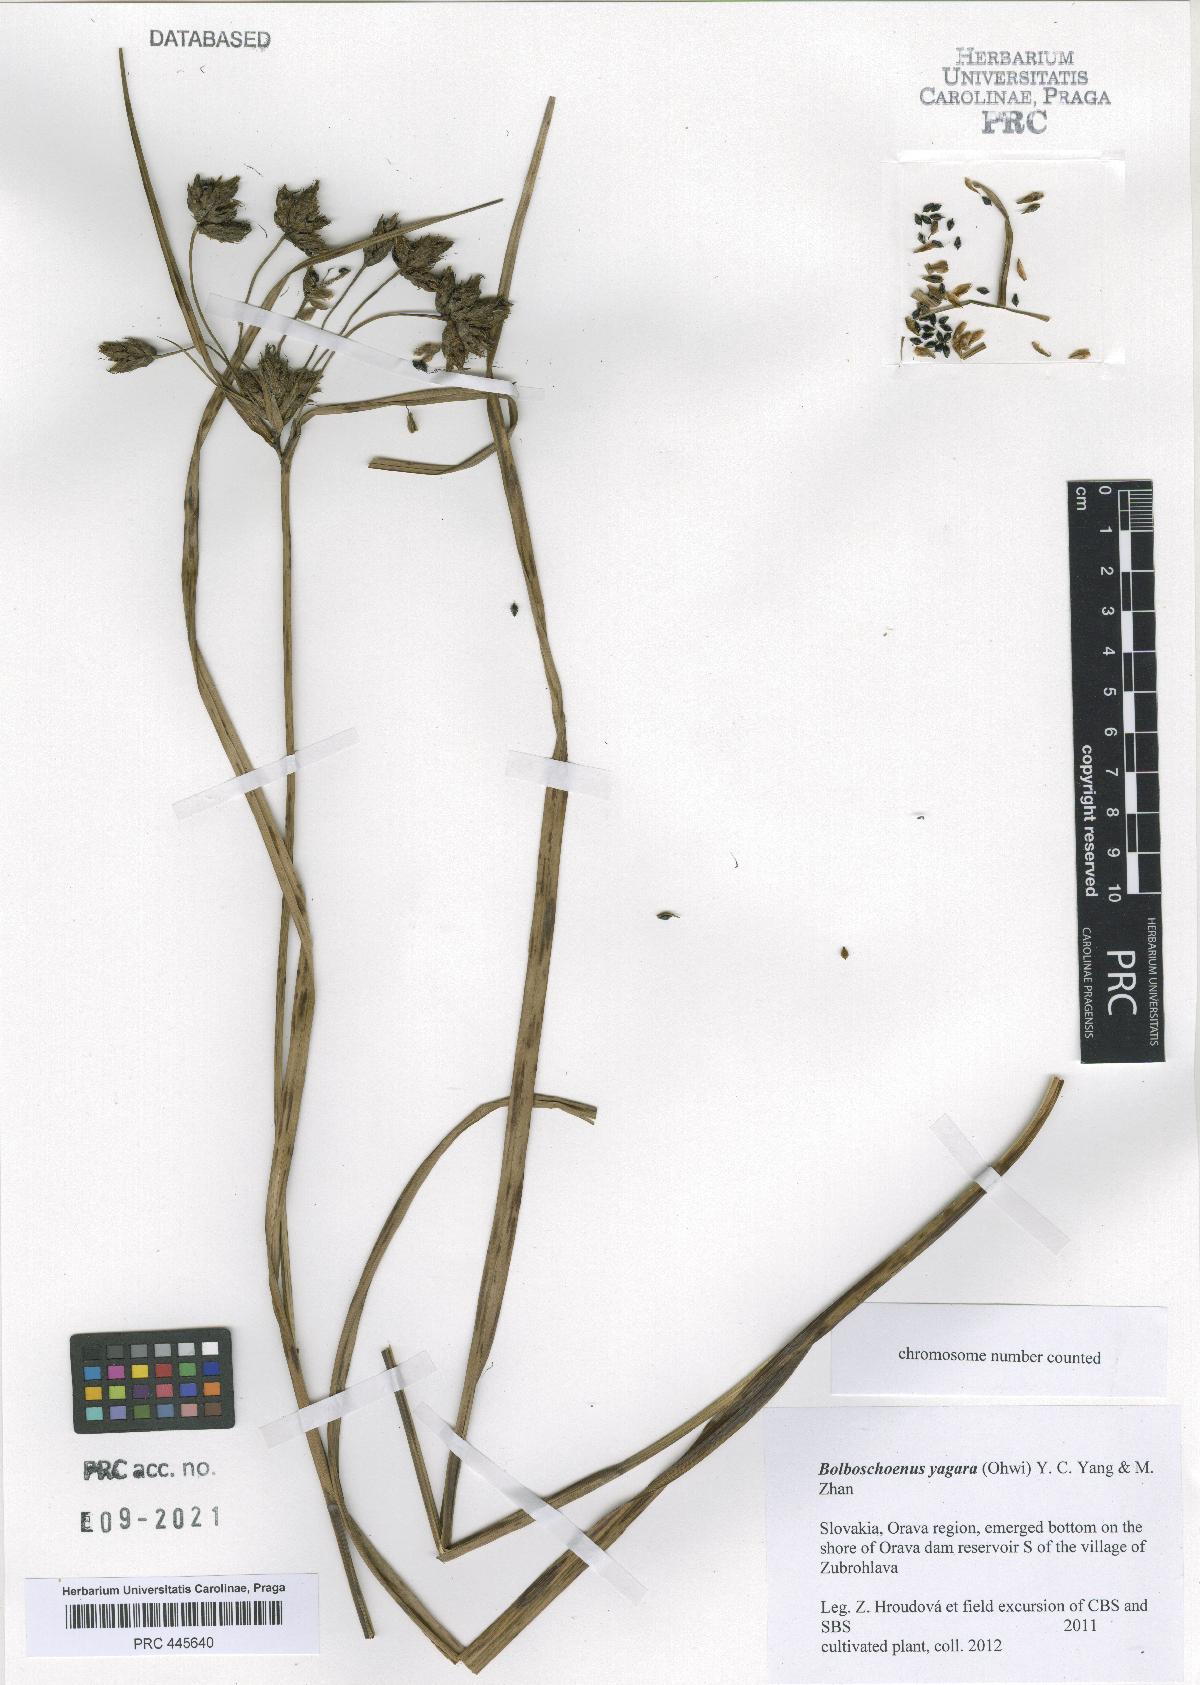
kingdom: Plantae
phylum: Tracheophyta
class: Liliopsida
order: Poales
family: Cyperaceae
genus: Bolboschoenus
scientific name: Bolboschoenus yagara
